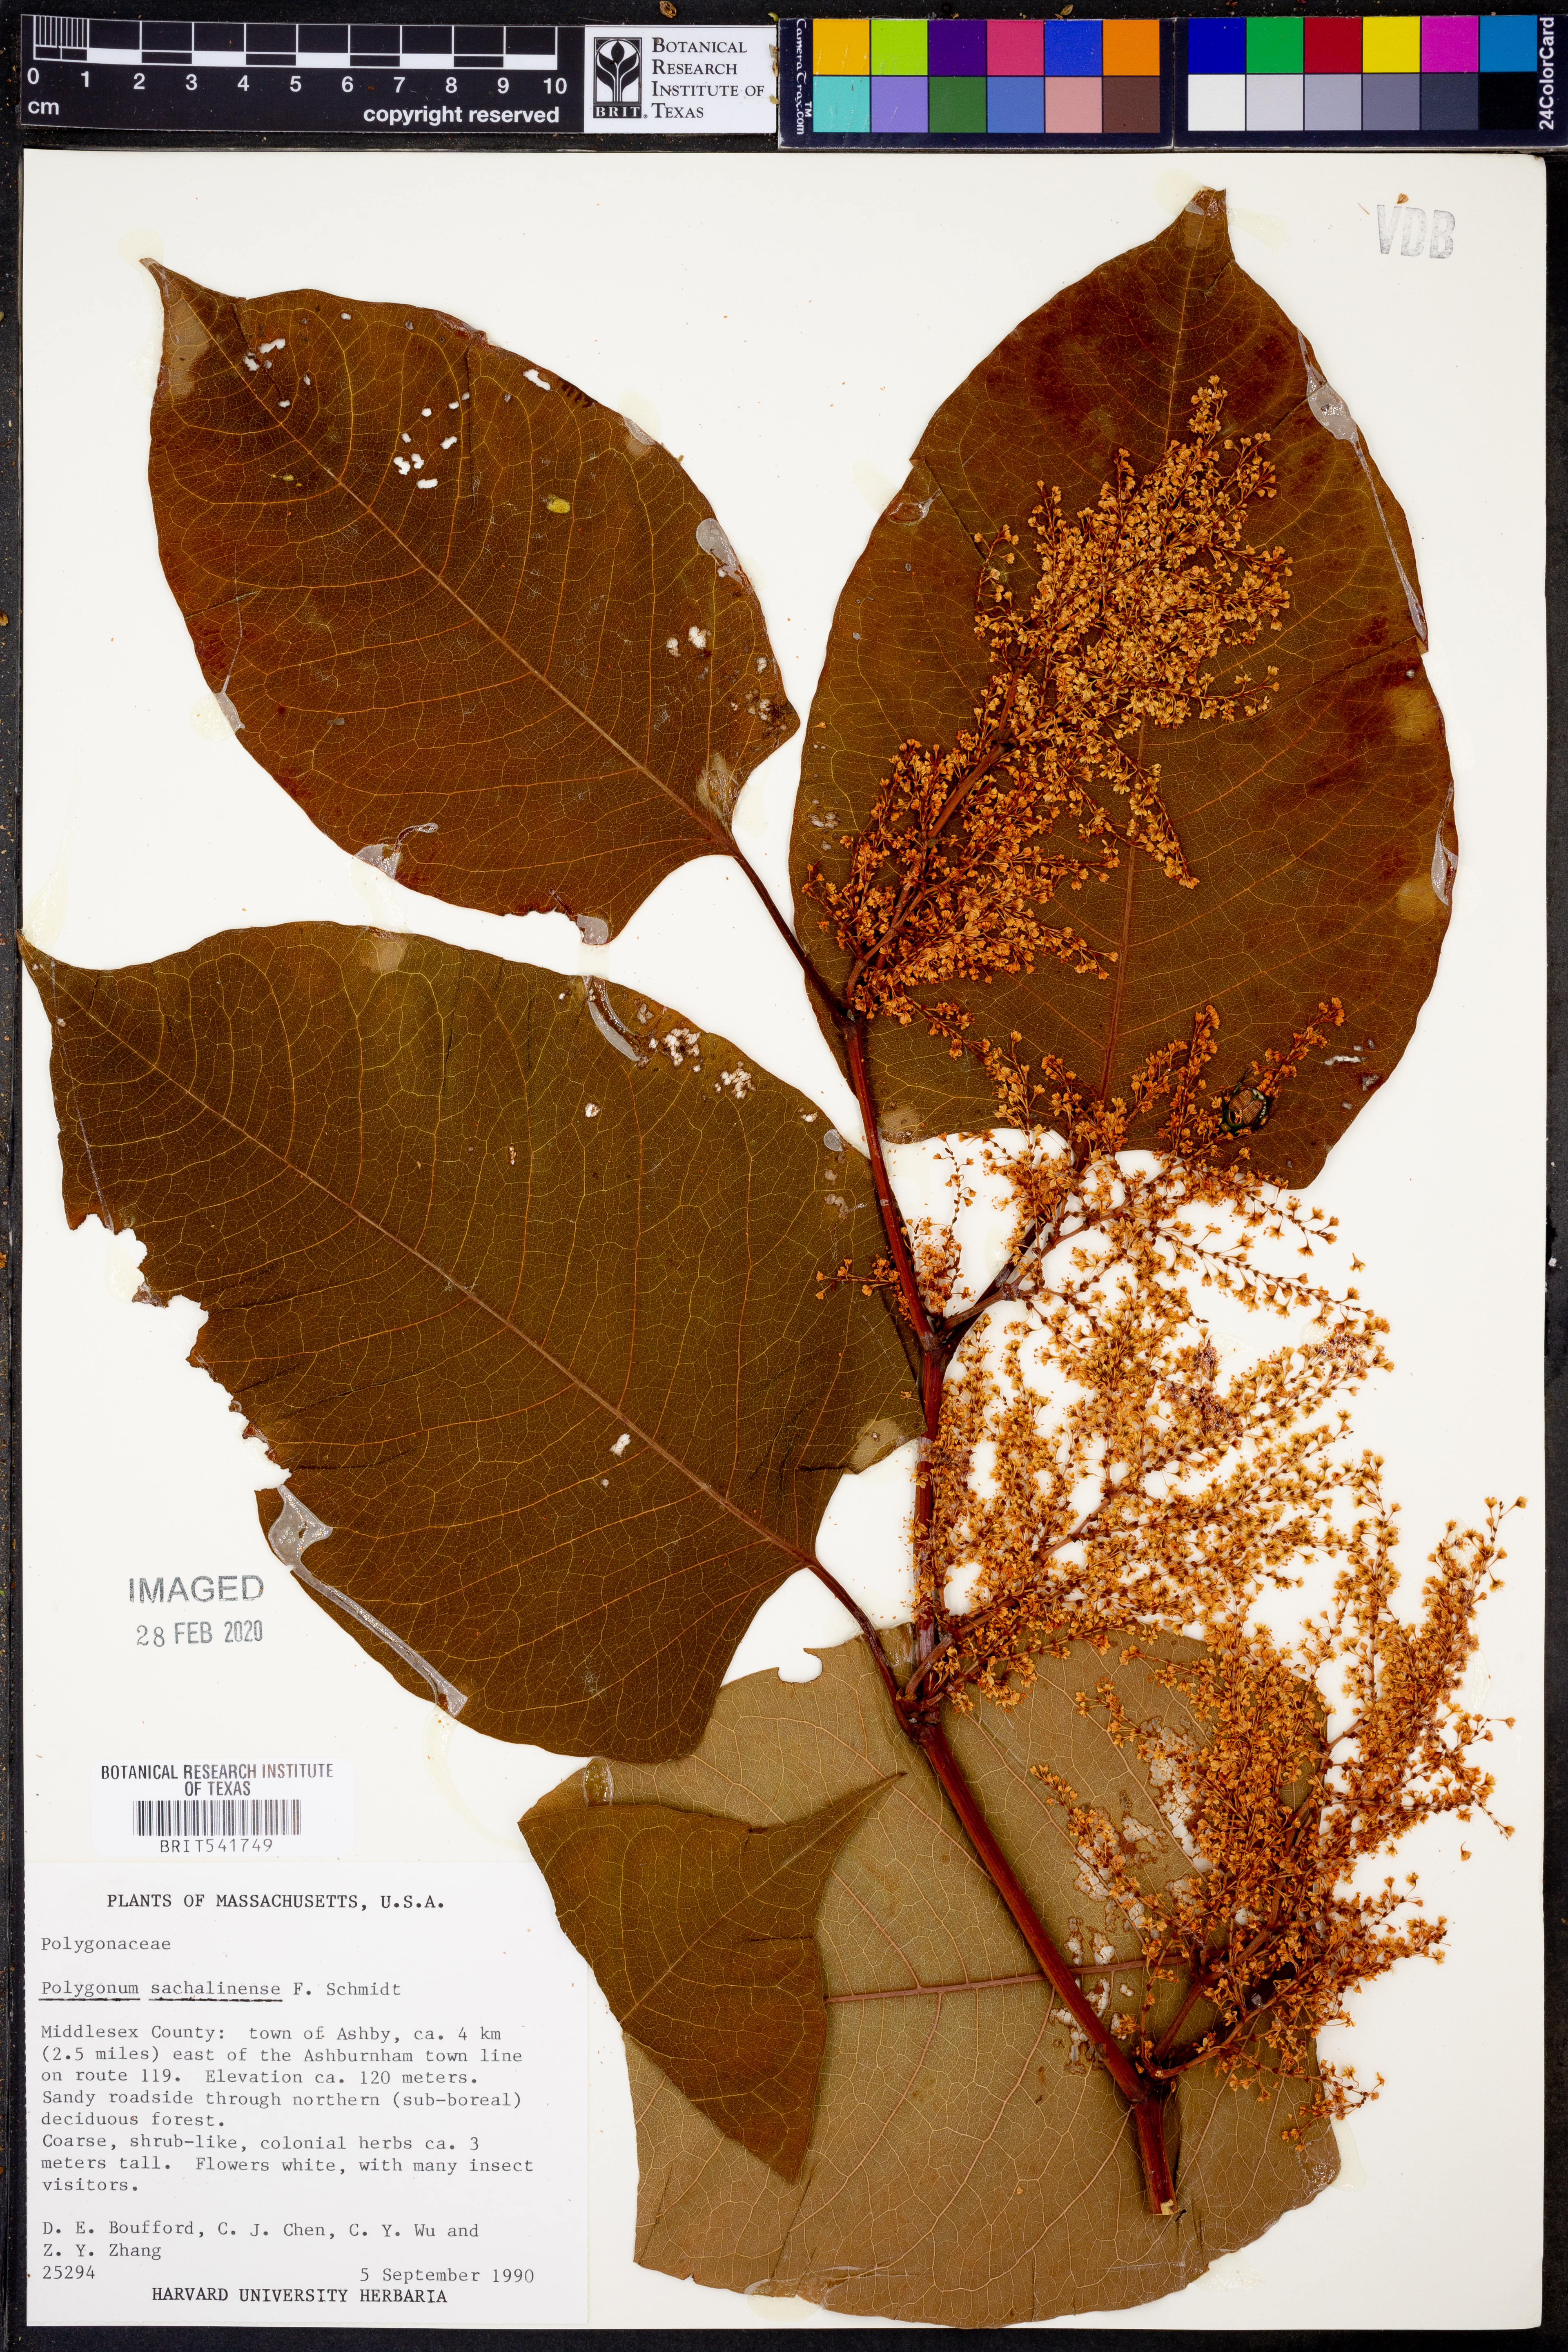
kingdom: Plantae
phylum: Tracheophyta
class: Magnoliopsida
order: Caryophyllales
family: Polygonaceae
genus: Reynoutria
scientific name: Reynoutria sachalinensis
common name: Giant knotweed
